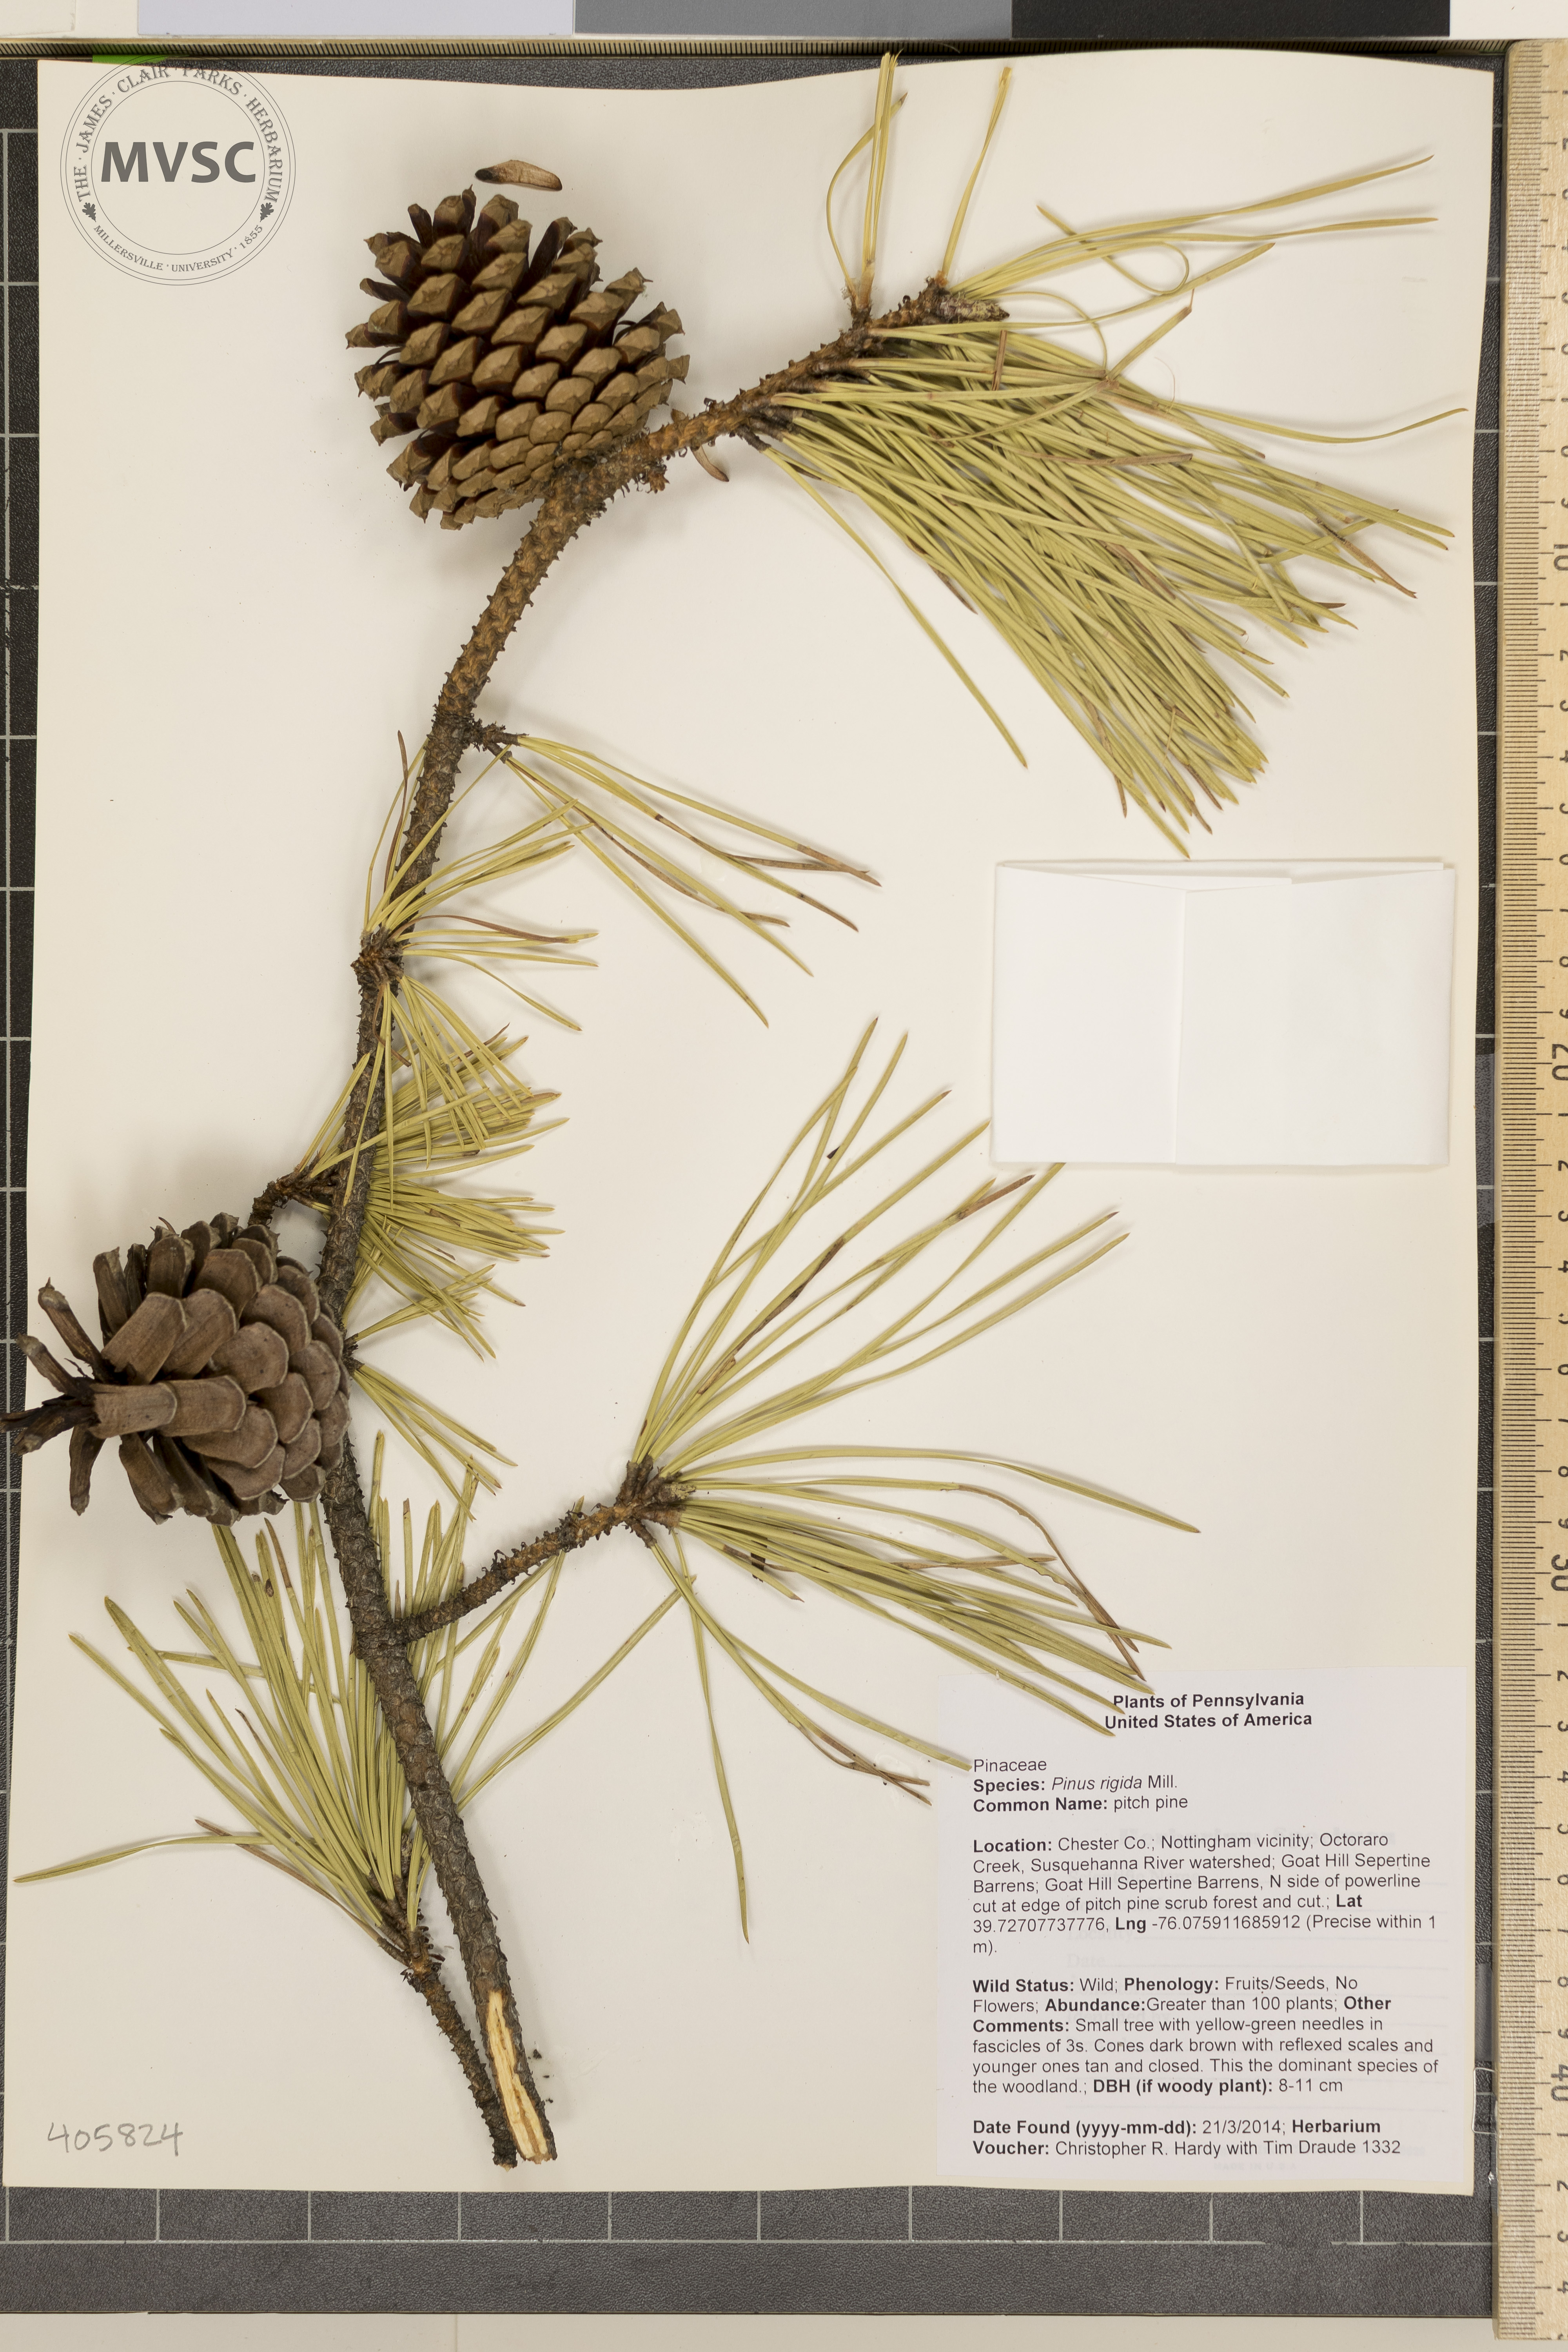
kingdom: Plantae
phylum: Tracheophyta
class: Pinopsida
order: Pinales
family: Pinaceae
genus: Pinus
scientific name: Pinus rigida
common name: pitch pine
